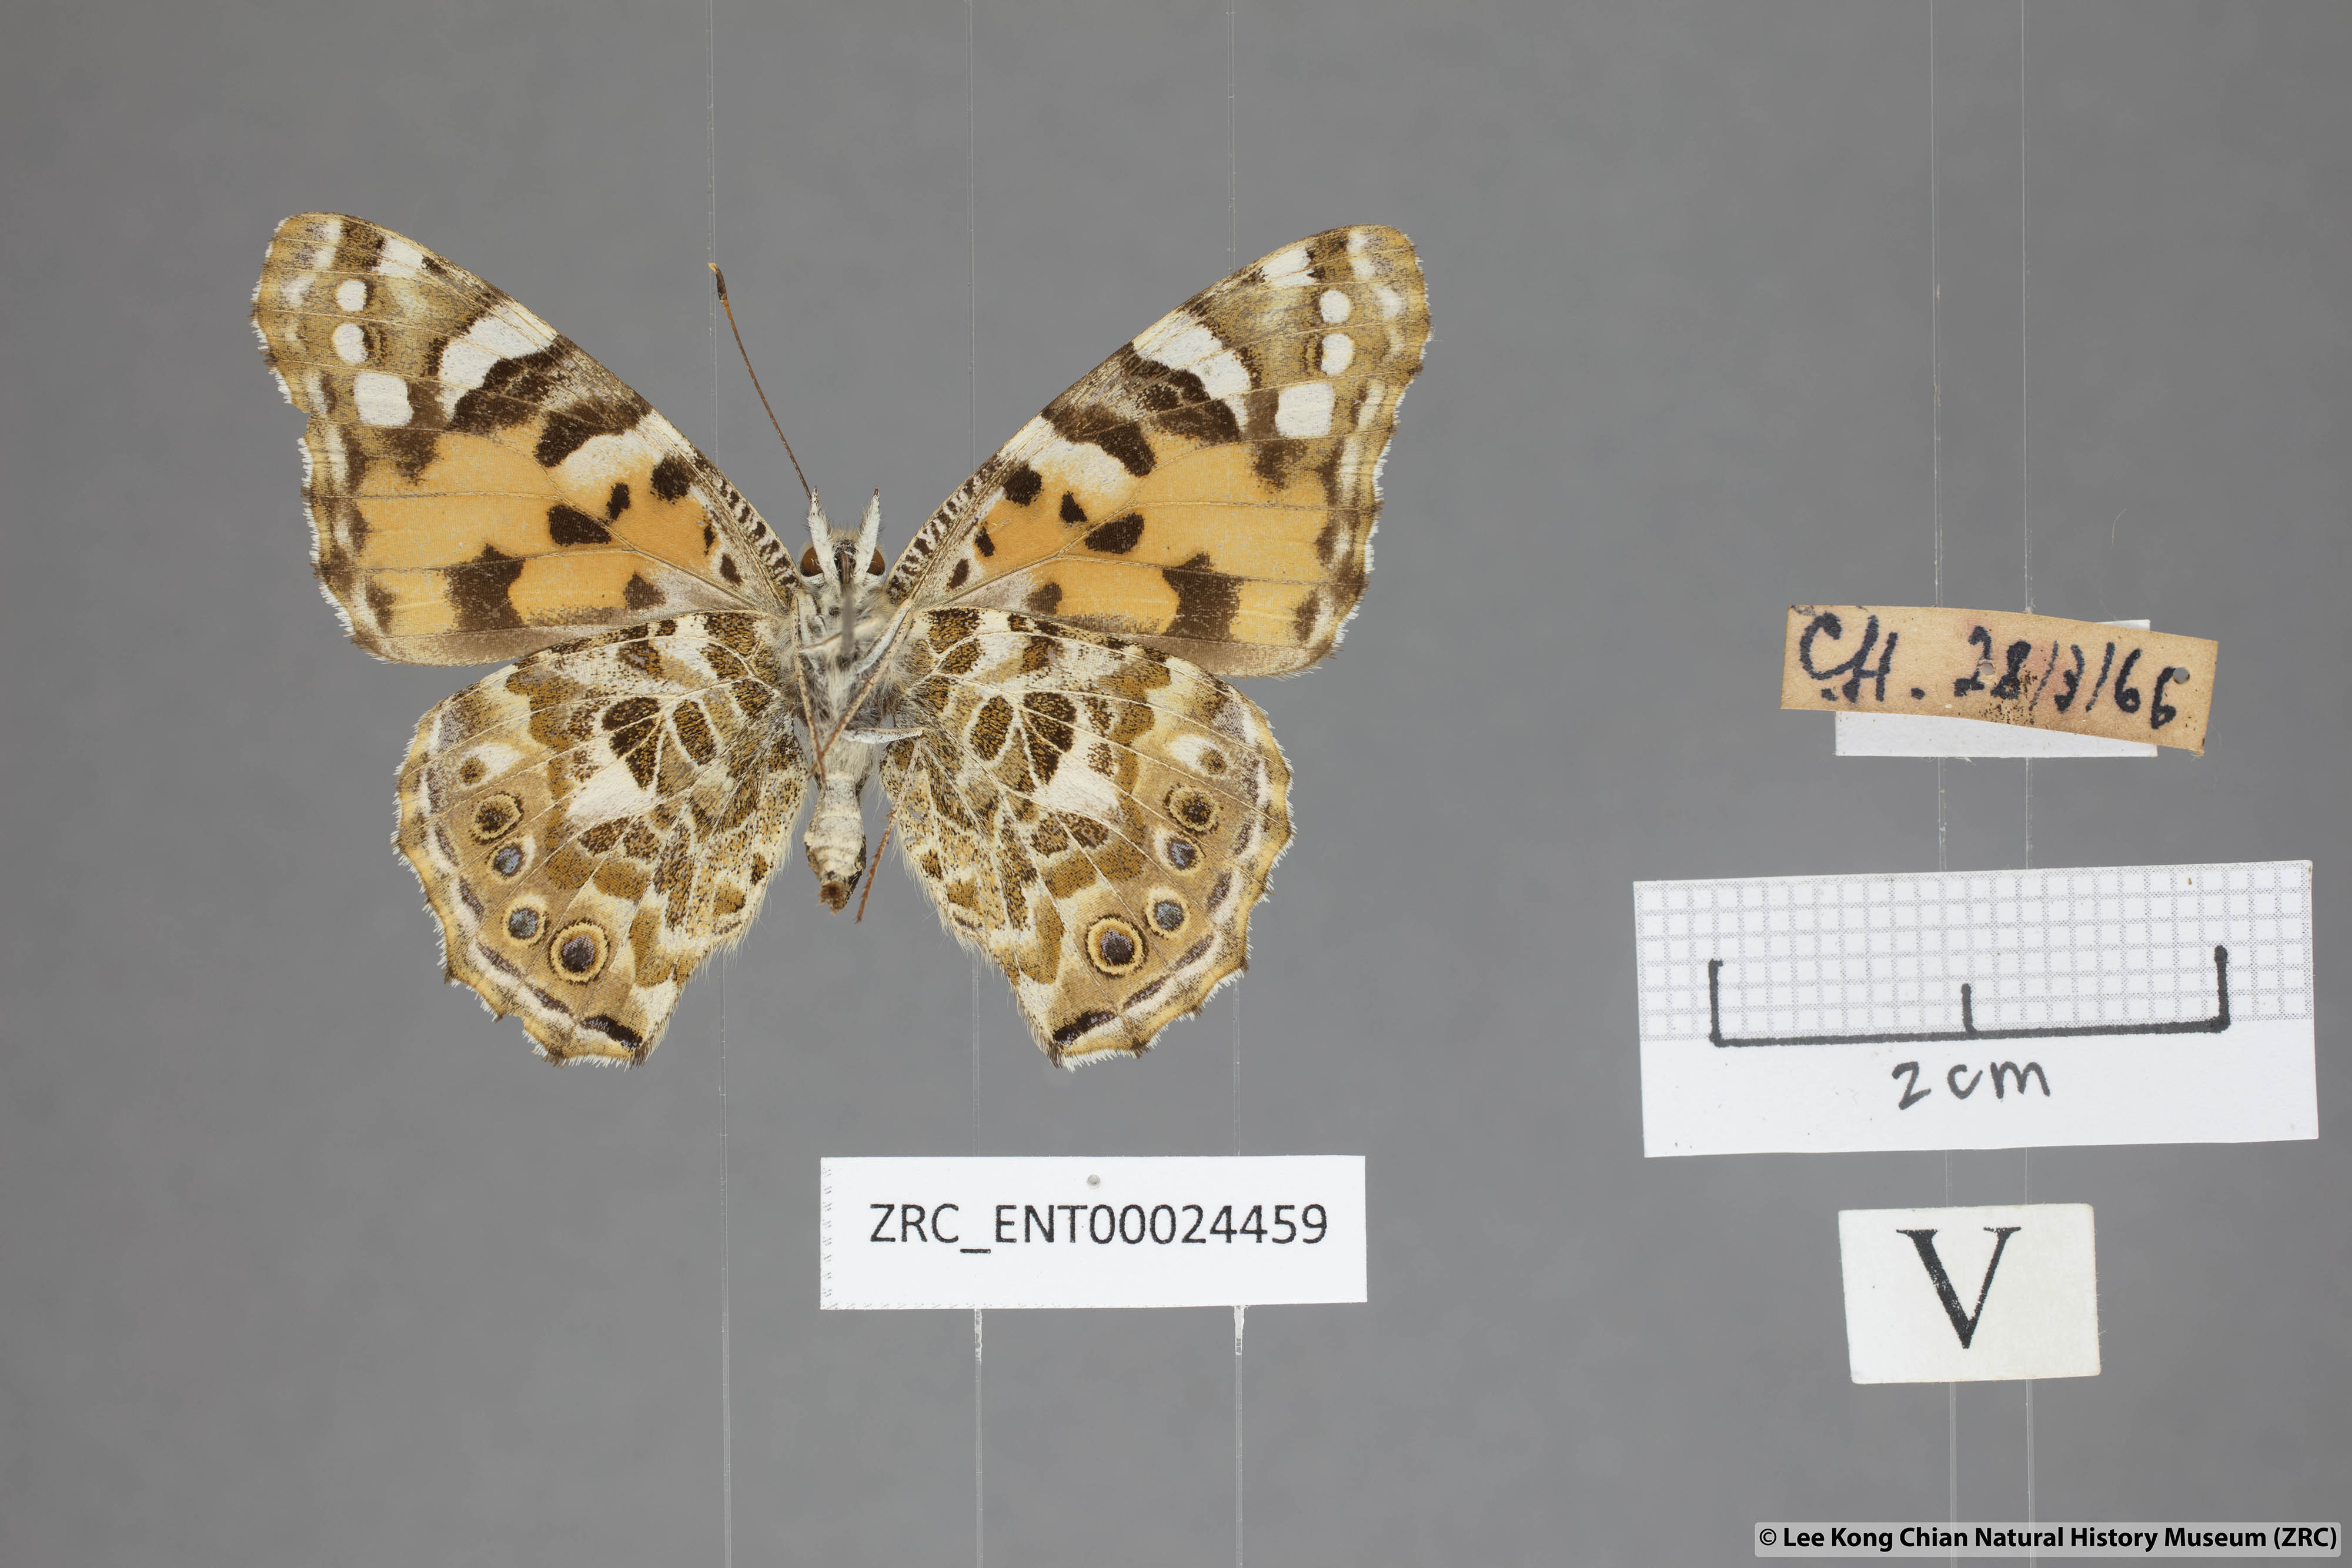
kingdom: Animalia
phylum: Arthropoda
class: Insecta
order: Lepidoptera
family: Nymphalidae
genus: Vanessa
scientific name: Vanessa cardui
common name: Painted lady
